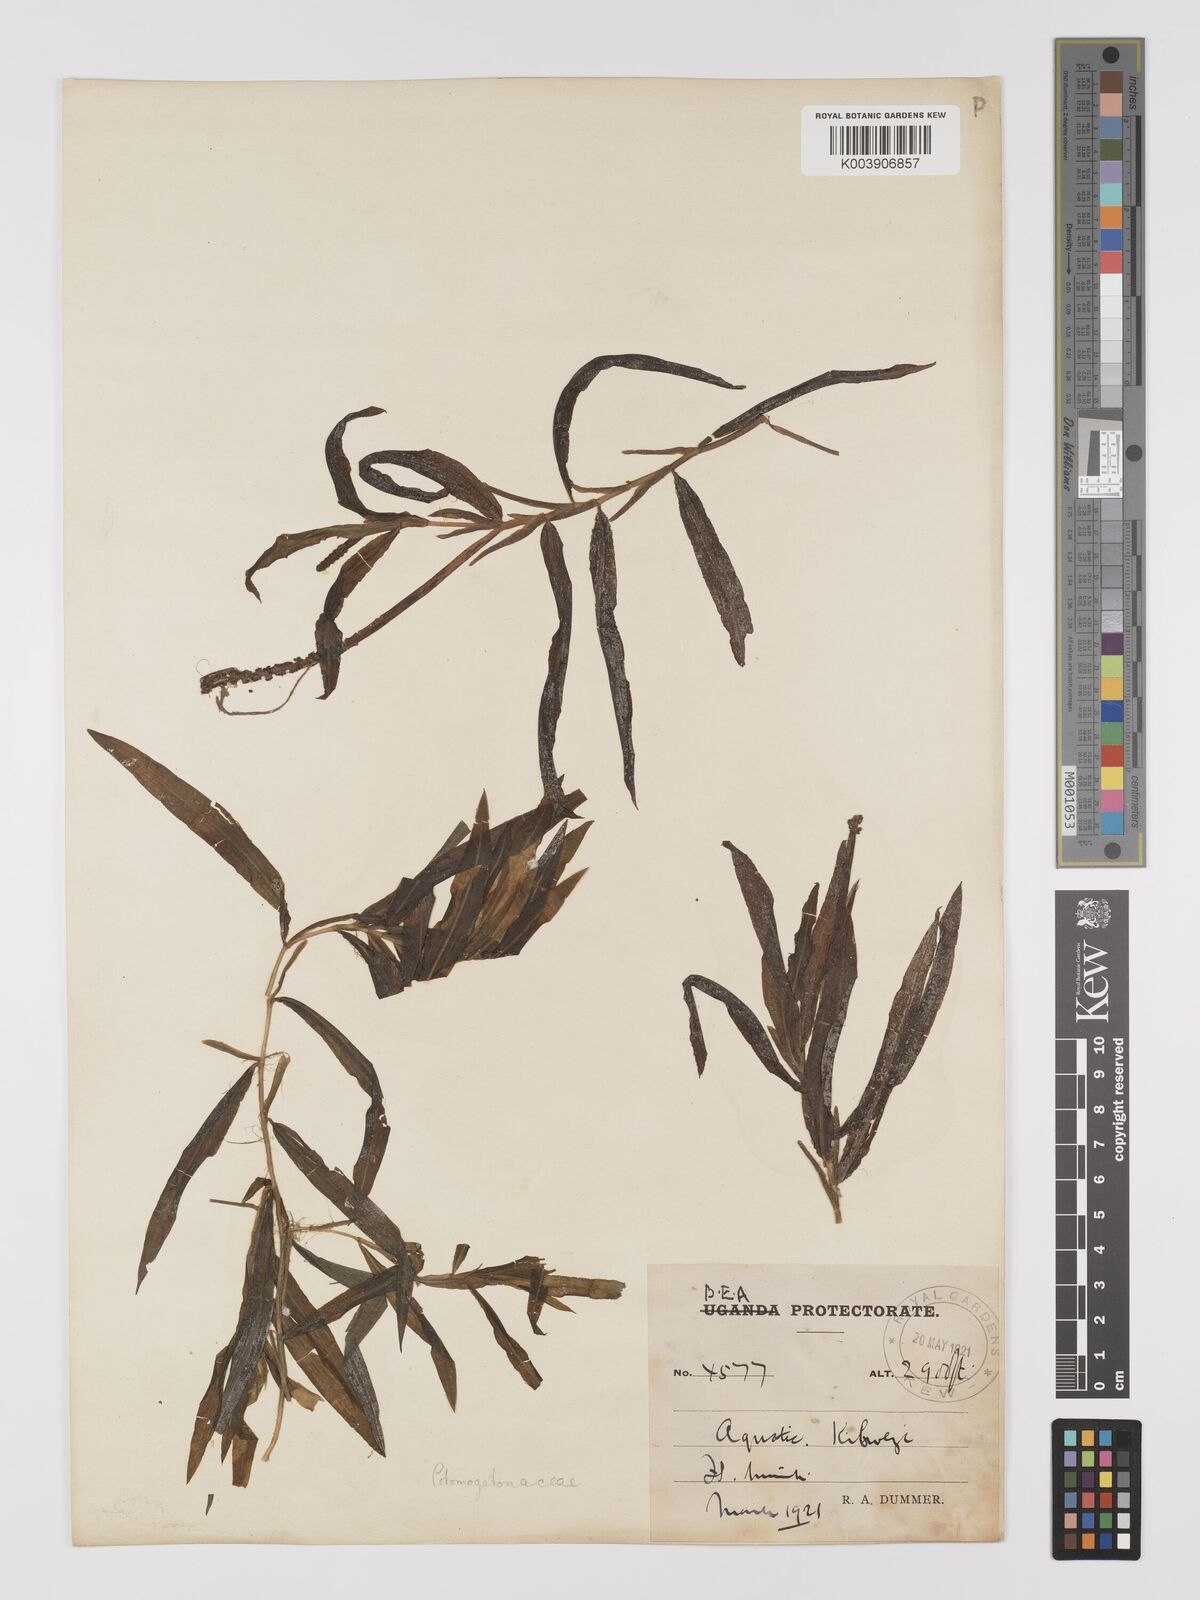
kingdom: Plantae
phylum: Tracheophyta
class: Liliopsida
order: Alismatales
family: Potamogetonaceae
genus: Potamogeton
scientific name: Potamogeton schweinfurthii
